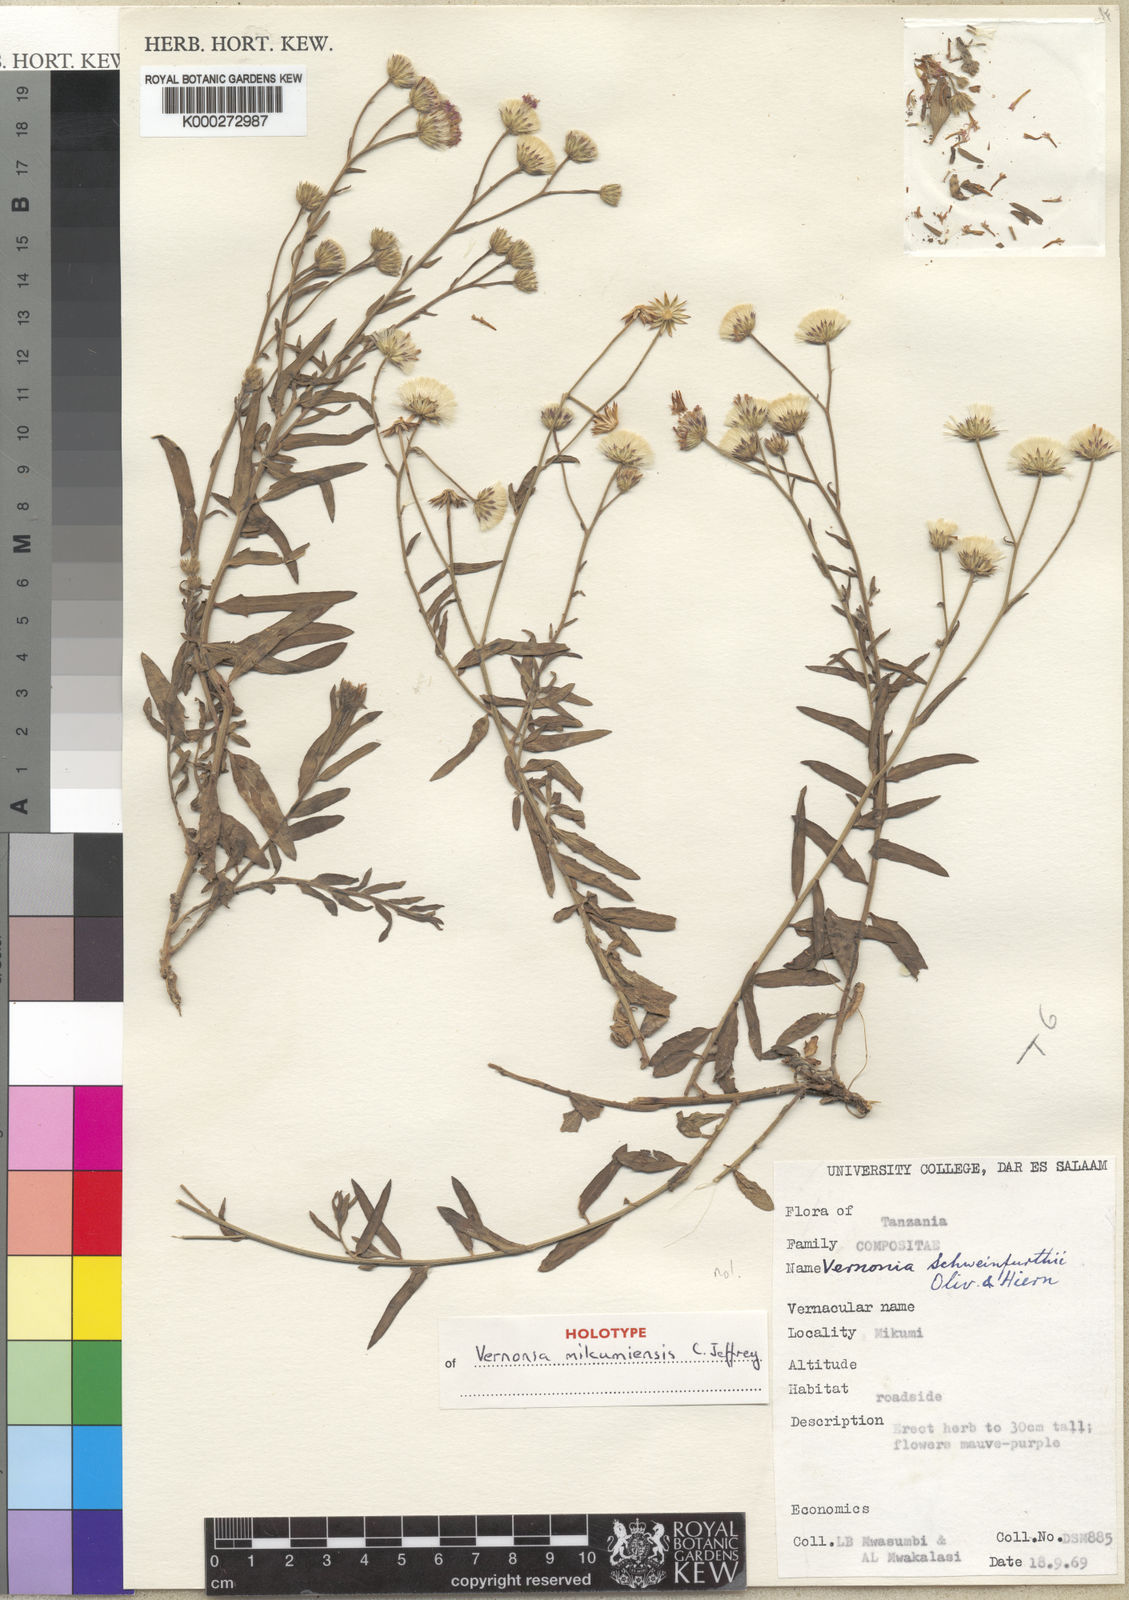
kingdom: Plantae
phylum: Tracheophyta
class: Magnoliopsida
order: Asterales
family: Asteraceae
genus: Vernonia
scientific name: Vernonia mikumiensis
